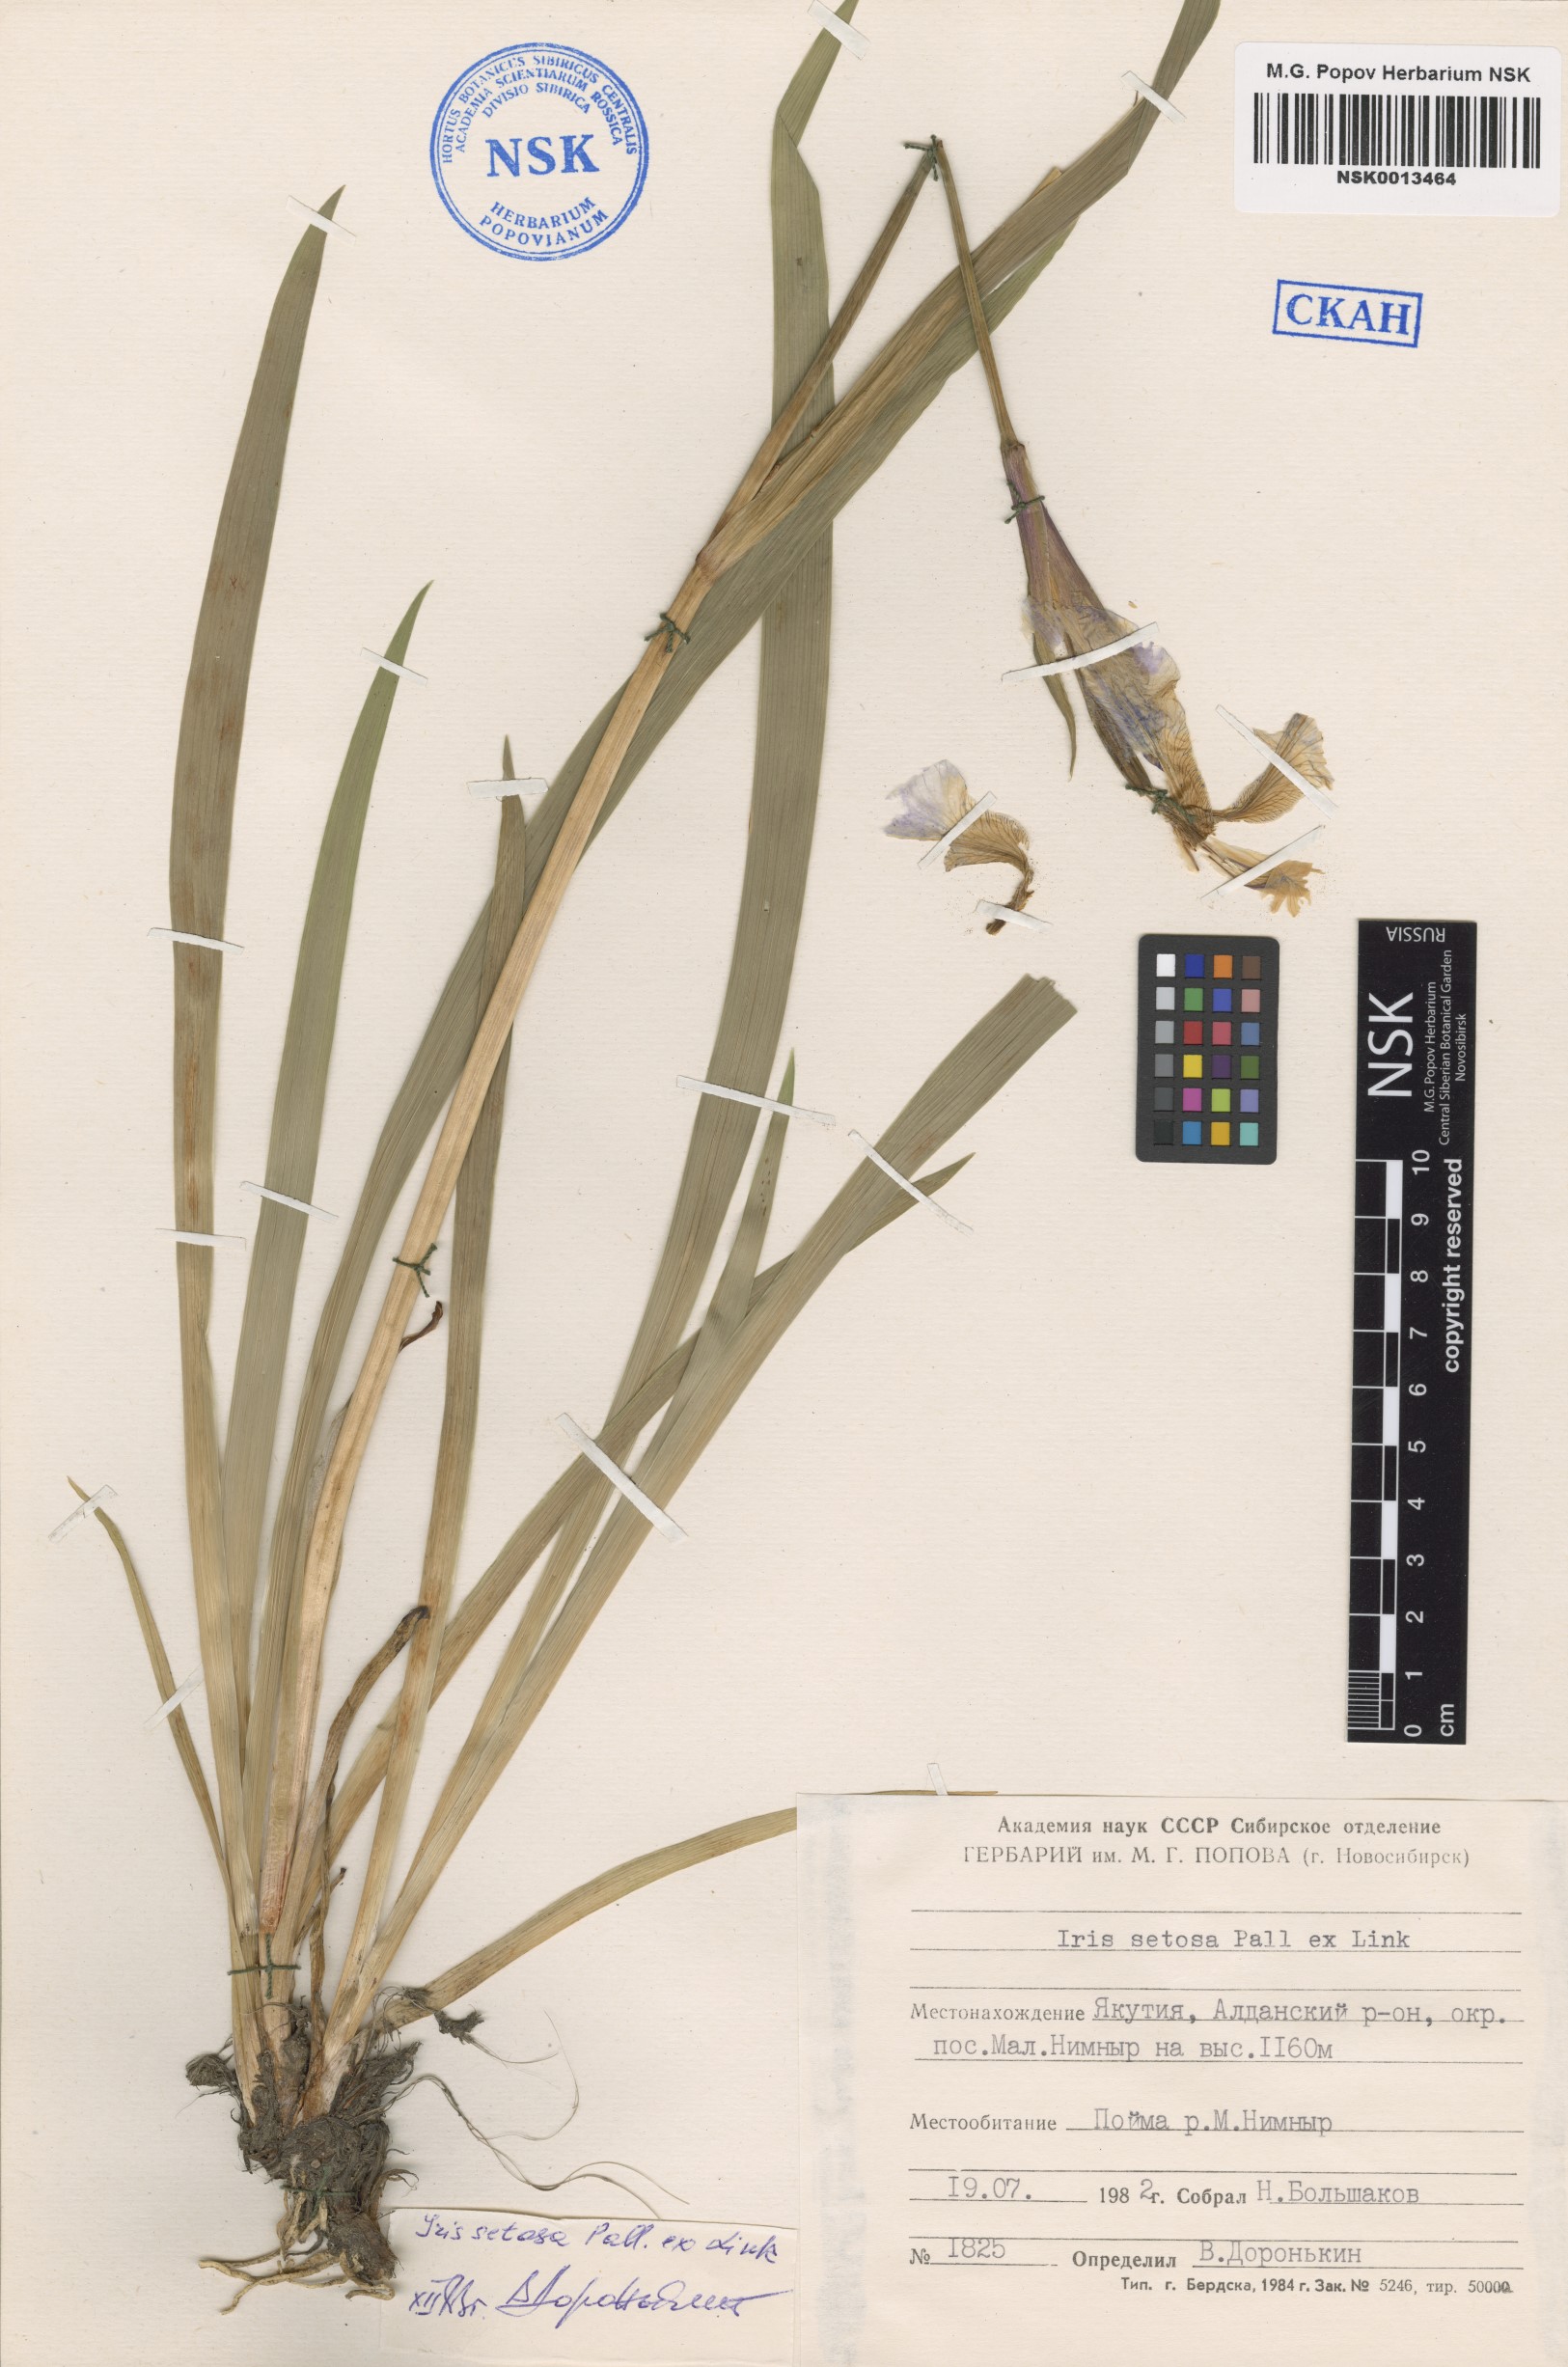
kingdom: Plantae
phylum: Tracheophyta
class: Liliopsida
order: Asparagales
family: Iridaceae
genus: Iris
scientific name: Iris setosa
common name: Arctic blue flag
